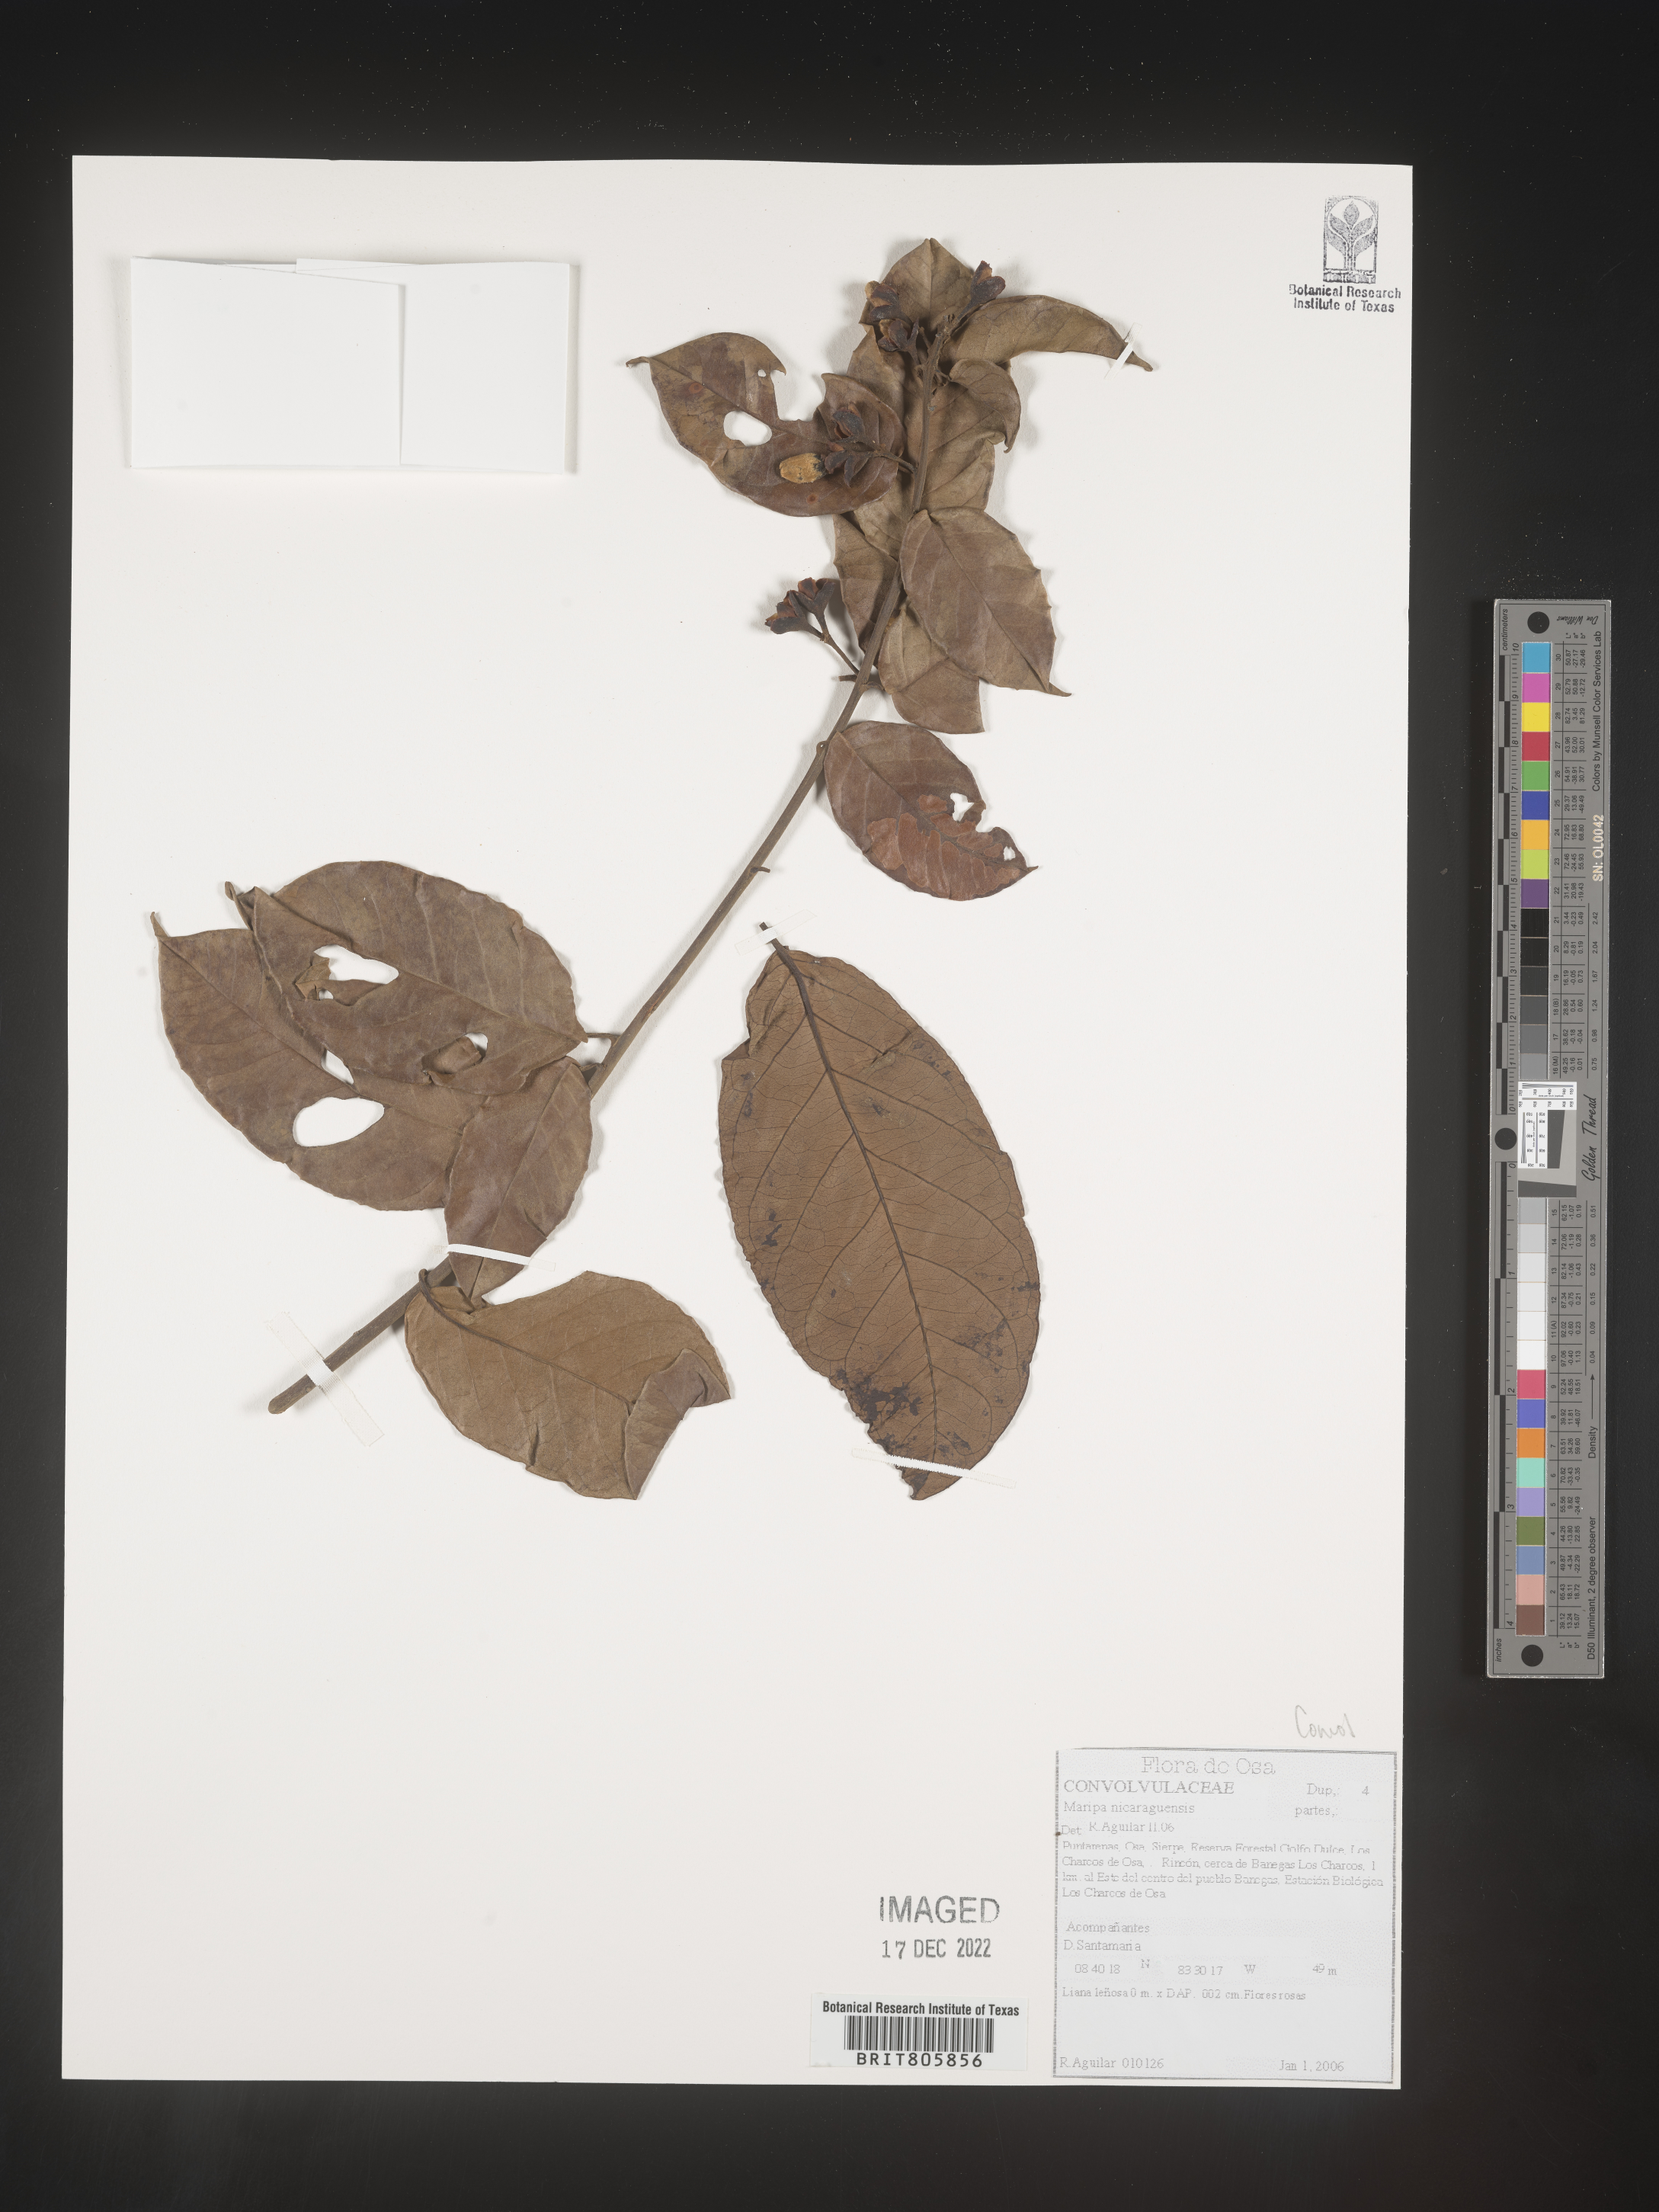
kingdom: Plantae
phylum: Tracheophyta
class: Magnoliopsida
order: Solanales
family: Convolvulaceae
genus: Maripa
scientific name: Maripa
